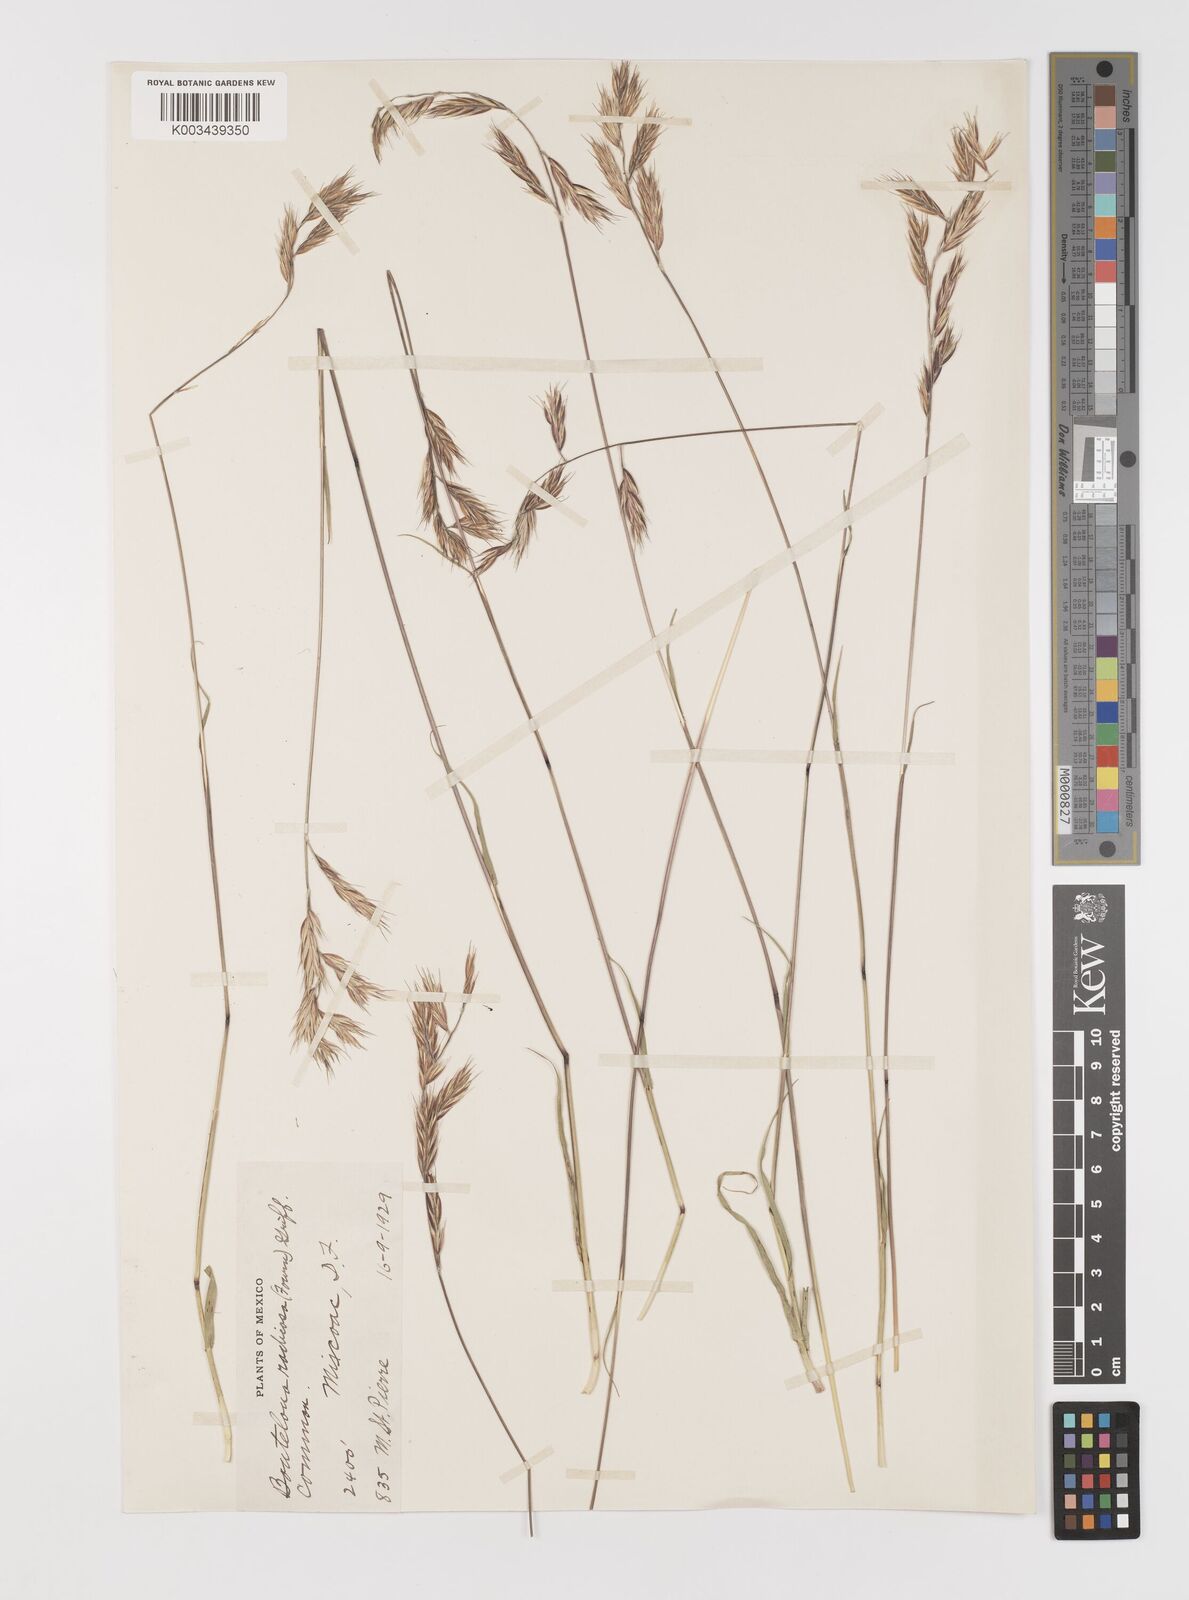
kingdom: Plantae
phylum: Tracheophyta
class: Liliopsida
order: Poales
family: Poaceae
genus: Bouteloua
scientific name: Bouteloua radicosa
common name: Purple grama
